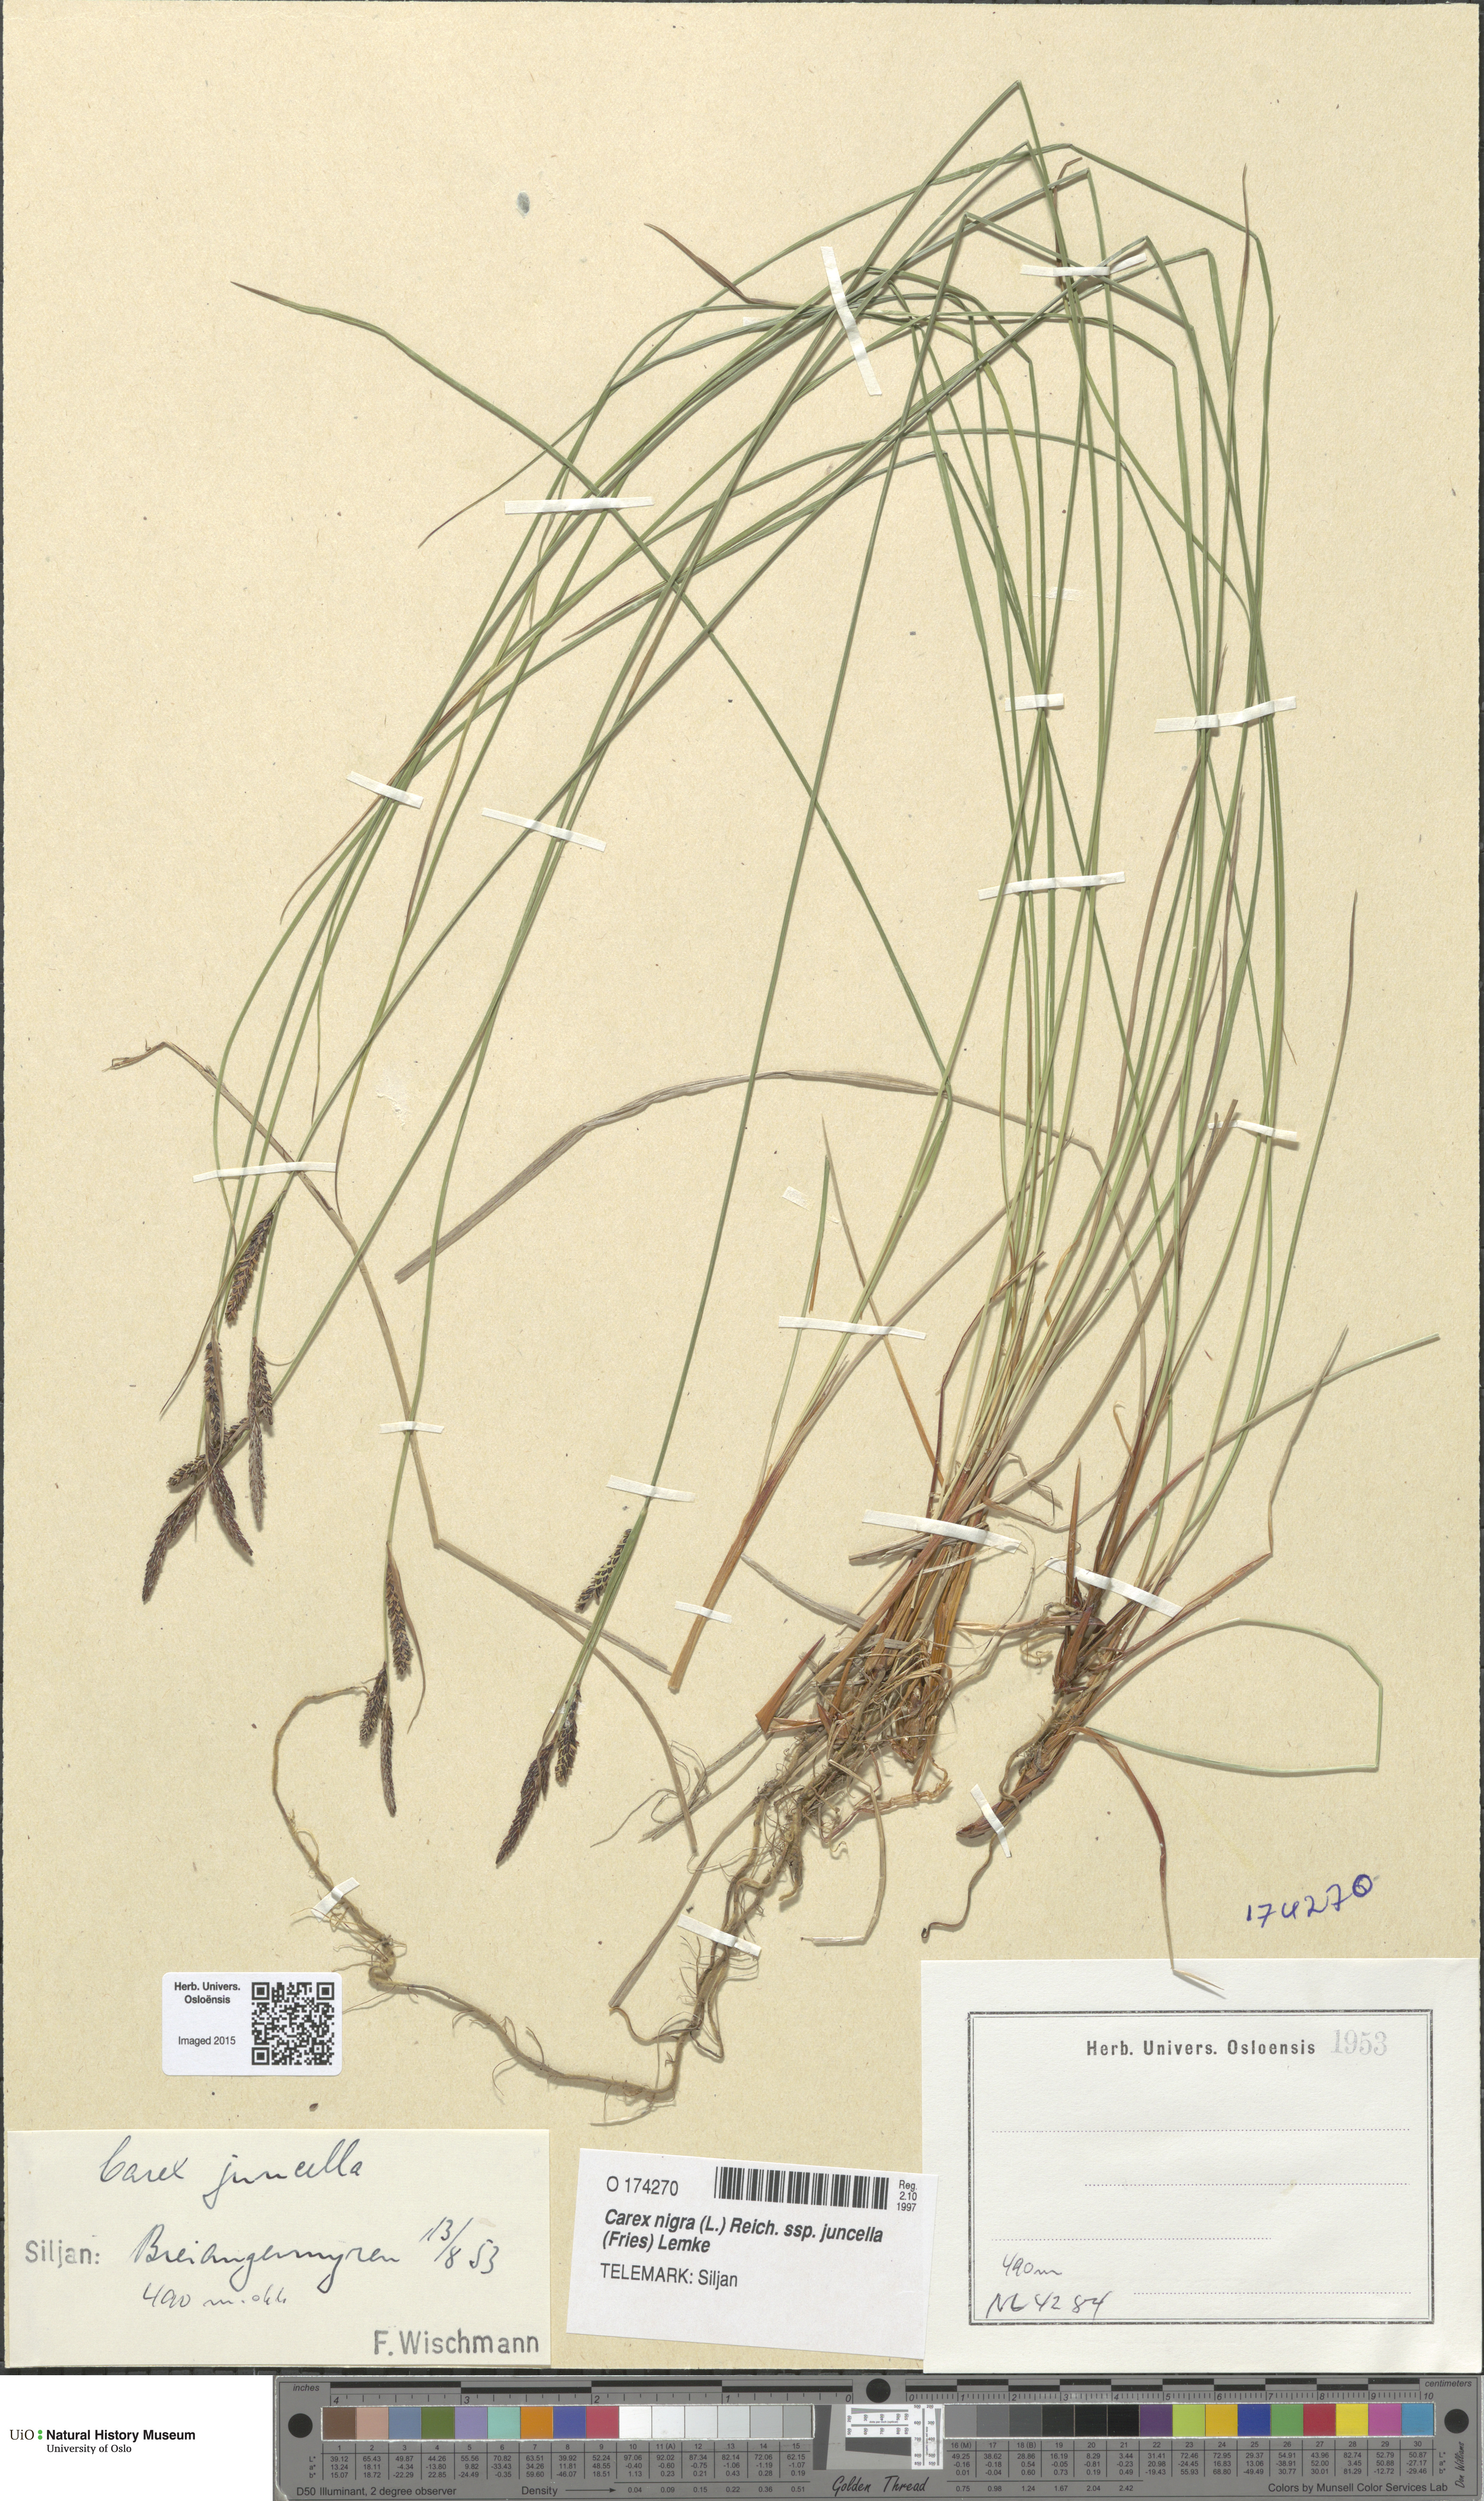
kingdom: Plantae
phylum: Tracheophyta
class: Liliopsida
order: Poales
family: Cyperaceae
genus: Carex
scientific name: Carex nigra
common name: Common sedge
